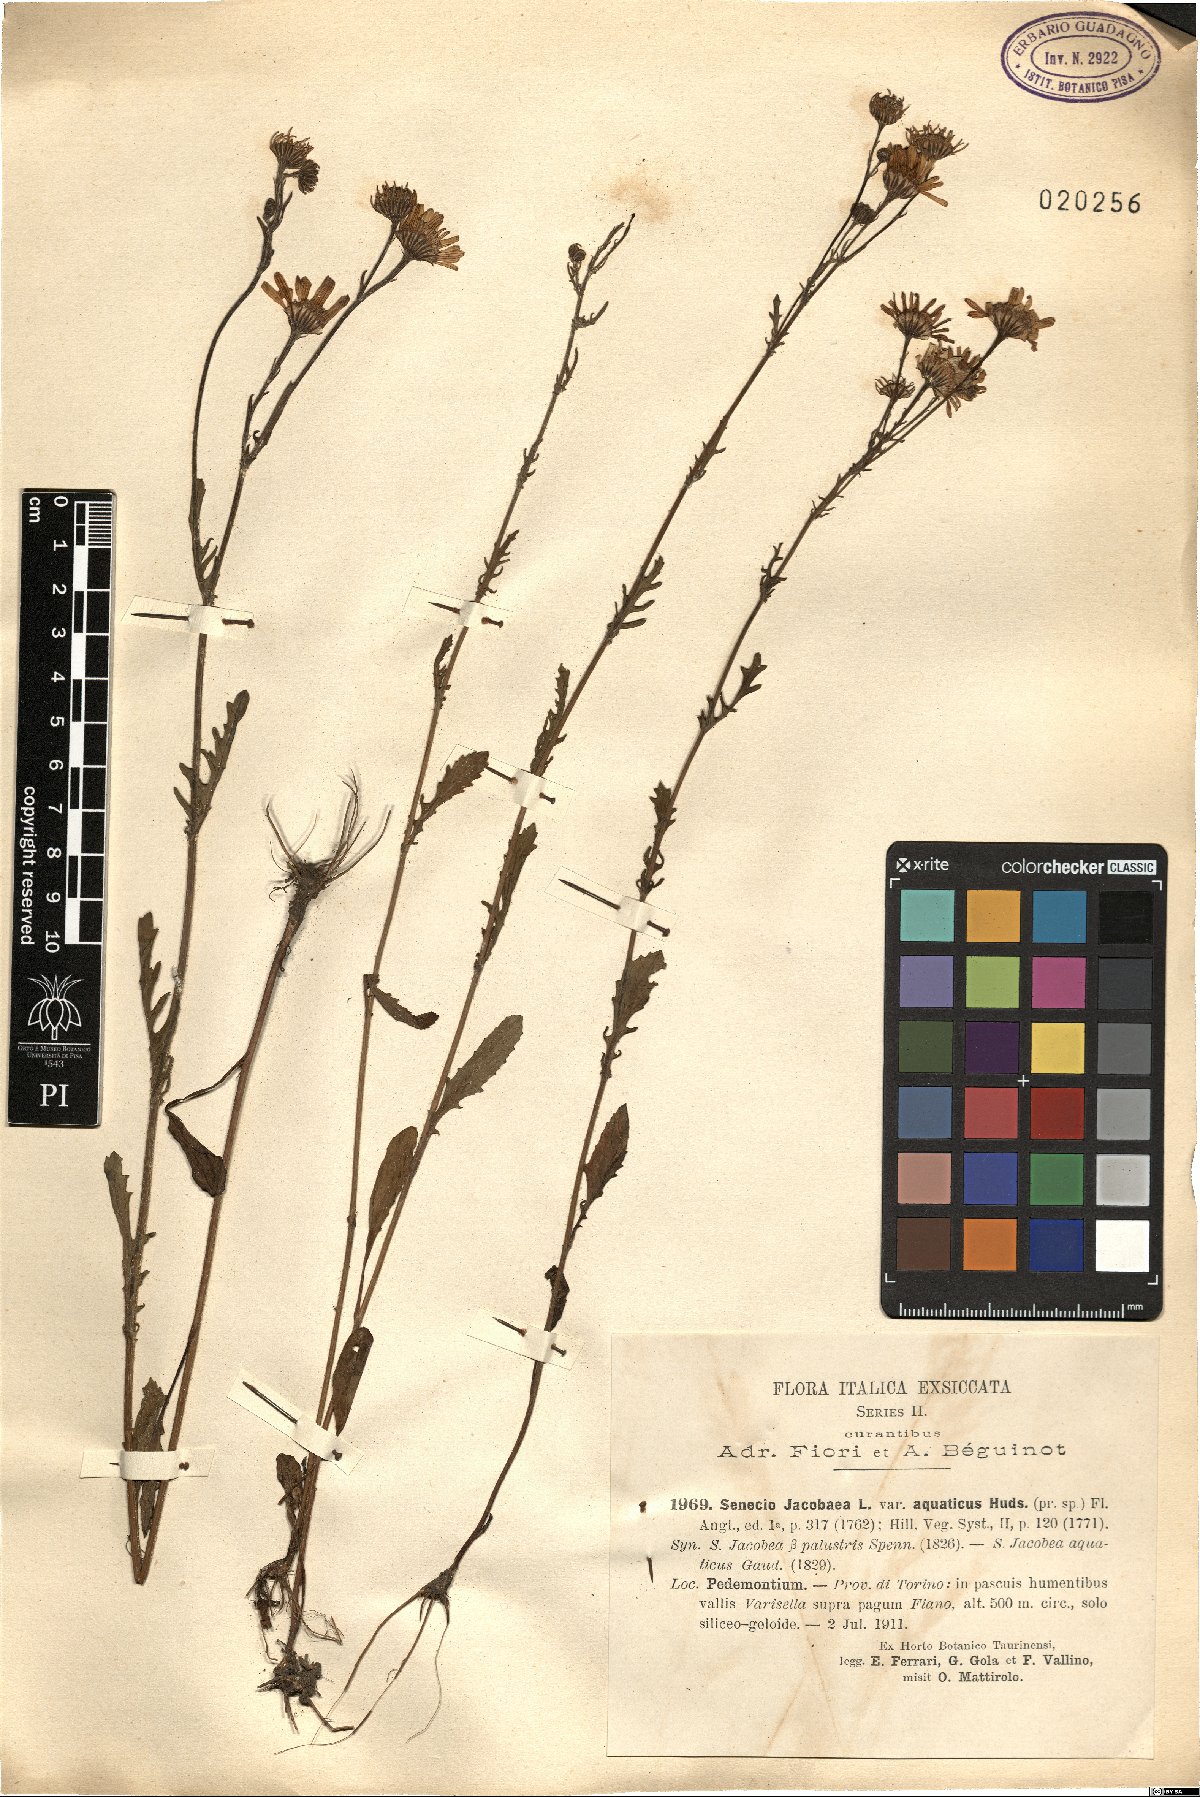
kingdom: Plantae
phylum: Tracheophyta
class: Magnoliopsida
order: Asterales
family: Asteraceae
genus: Jacobaea
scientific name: Jacobaea vulgaris
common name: Stinking willie
